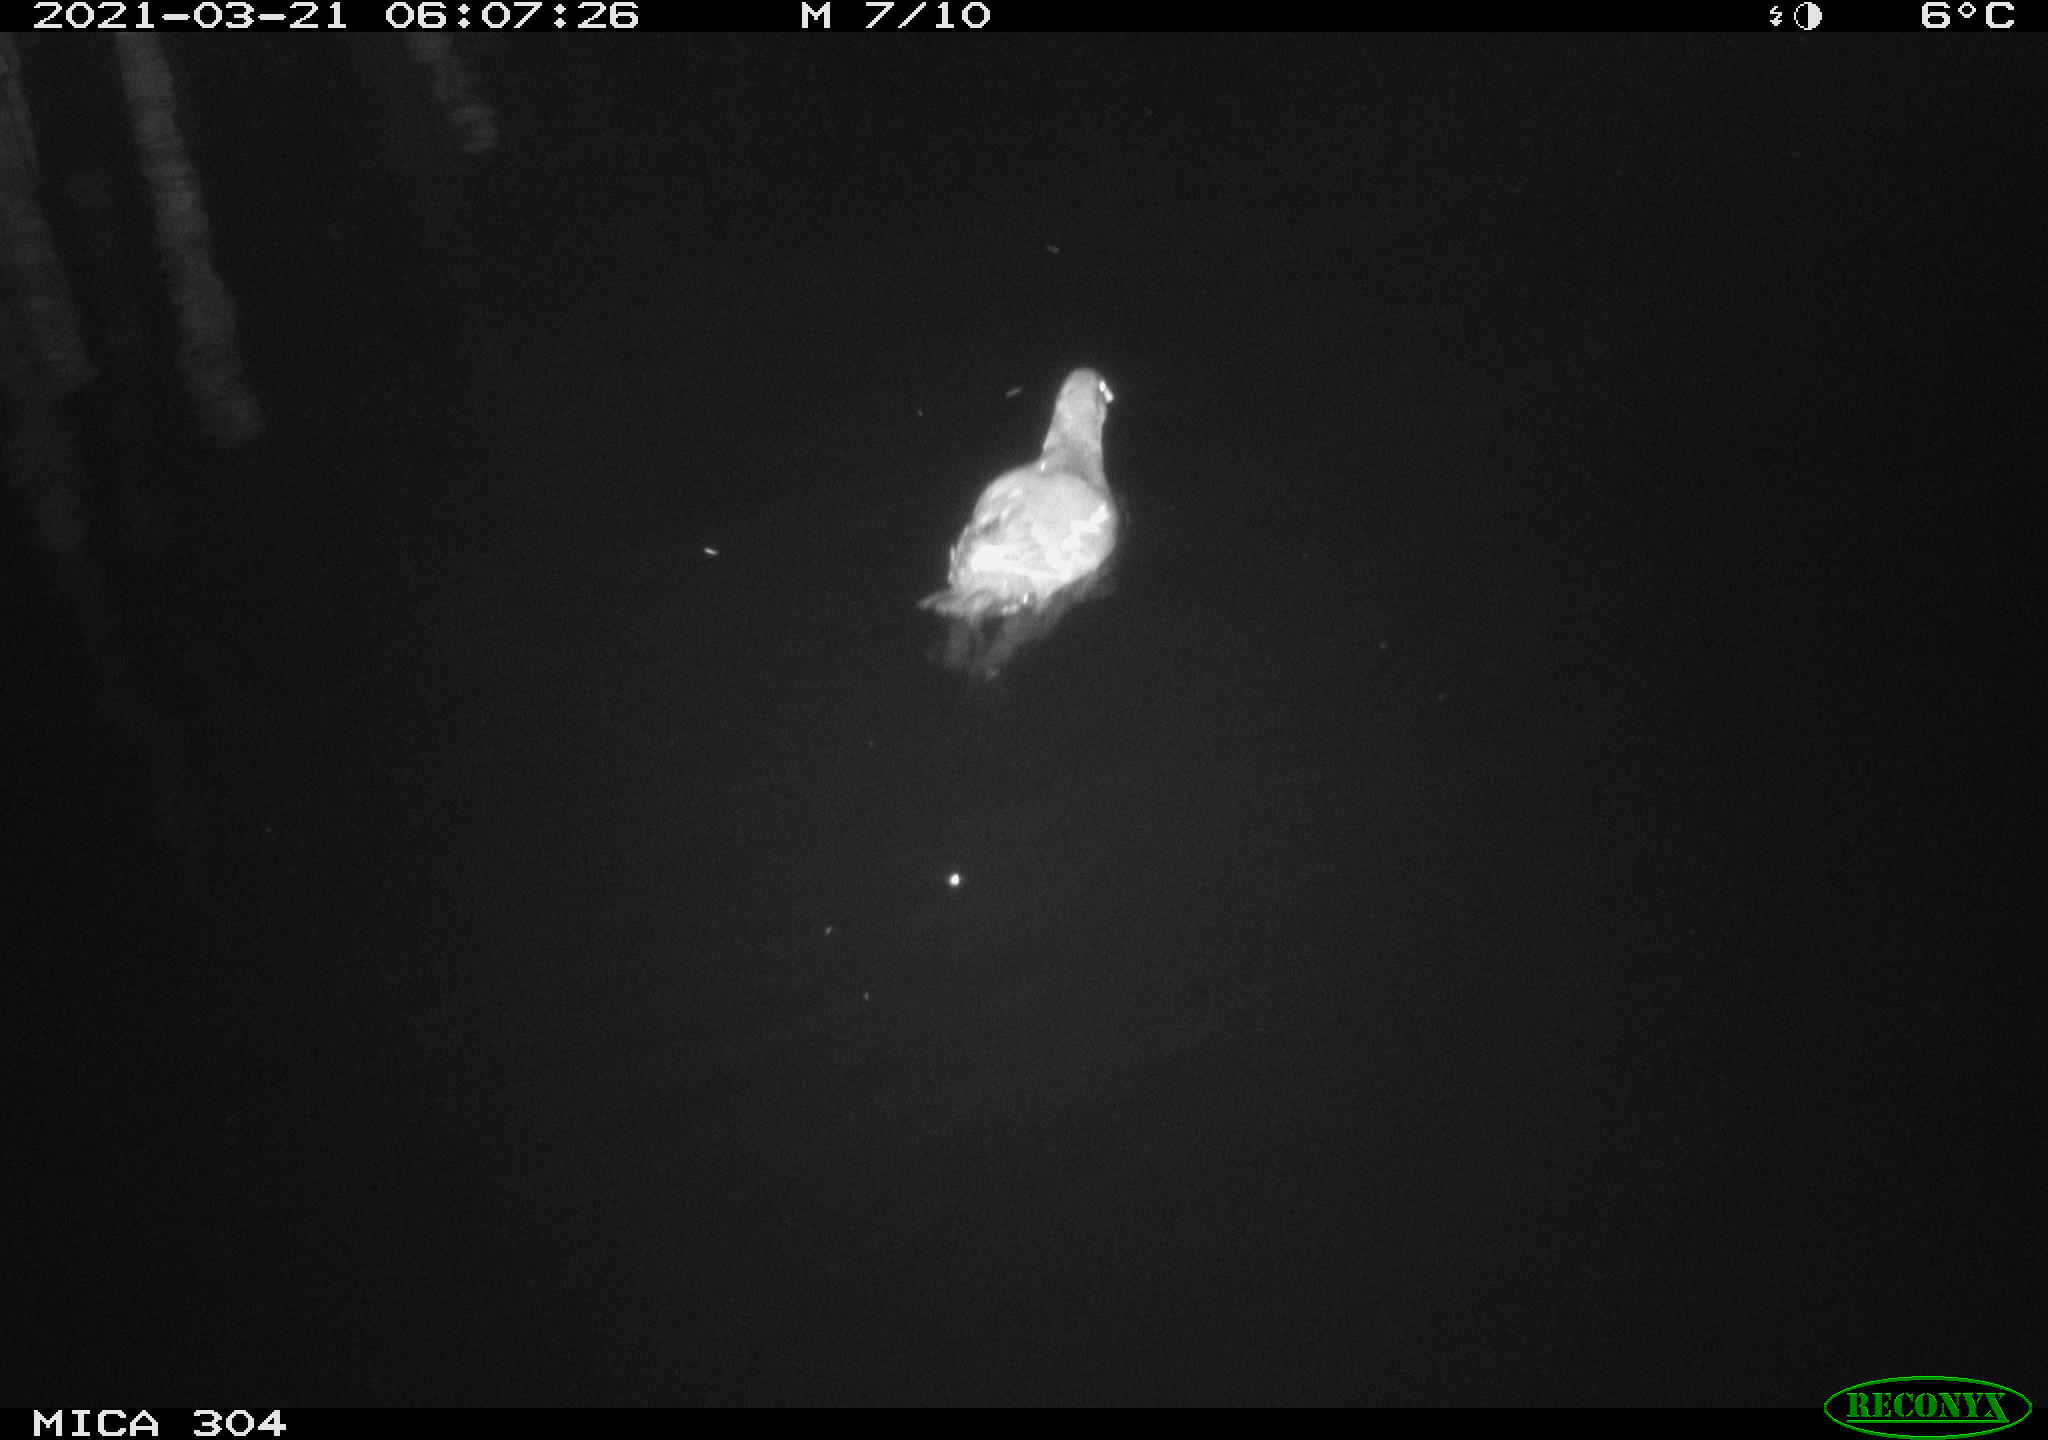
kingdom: Animalia
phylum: Chordata
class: Aves
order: Anseriformes
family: Anatidae
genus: Anas
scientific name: Anas platyrhynchos
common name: Mallard
